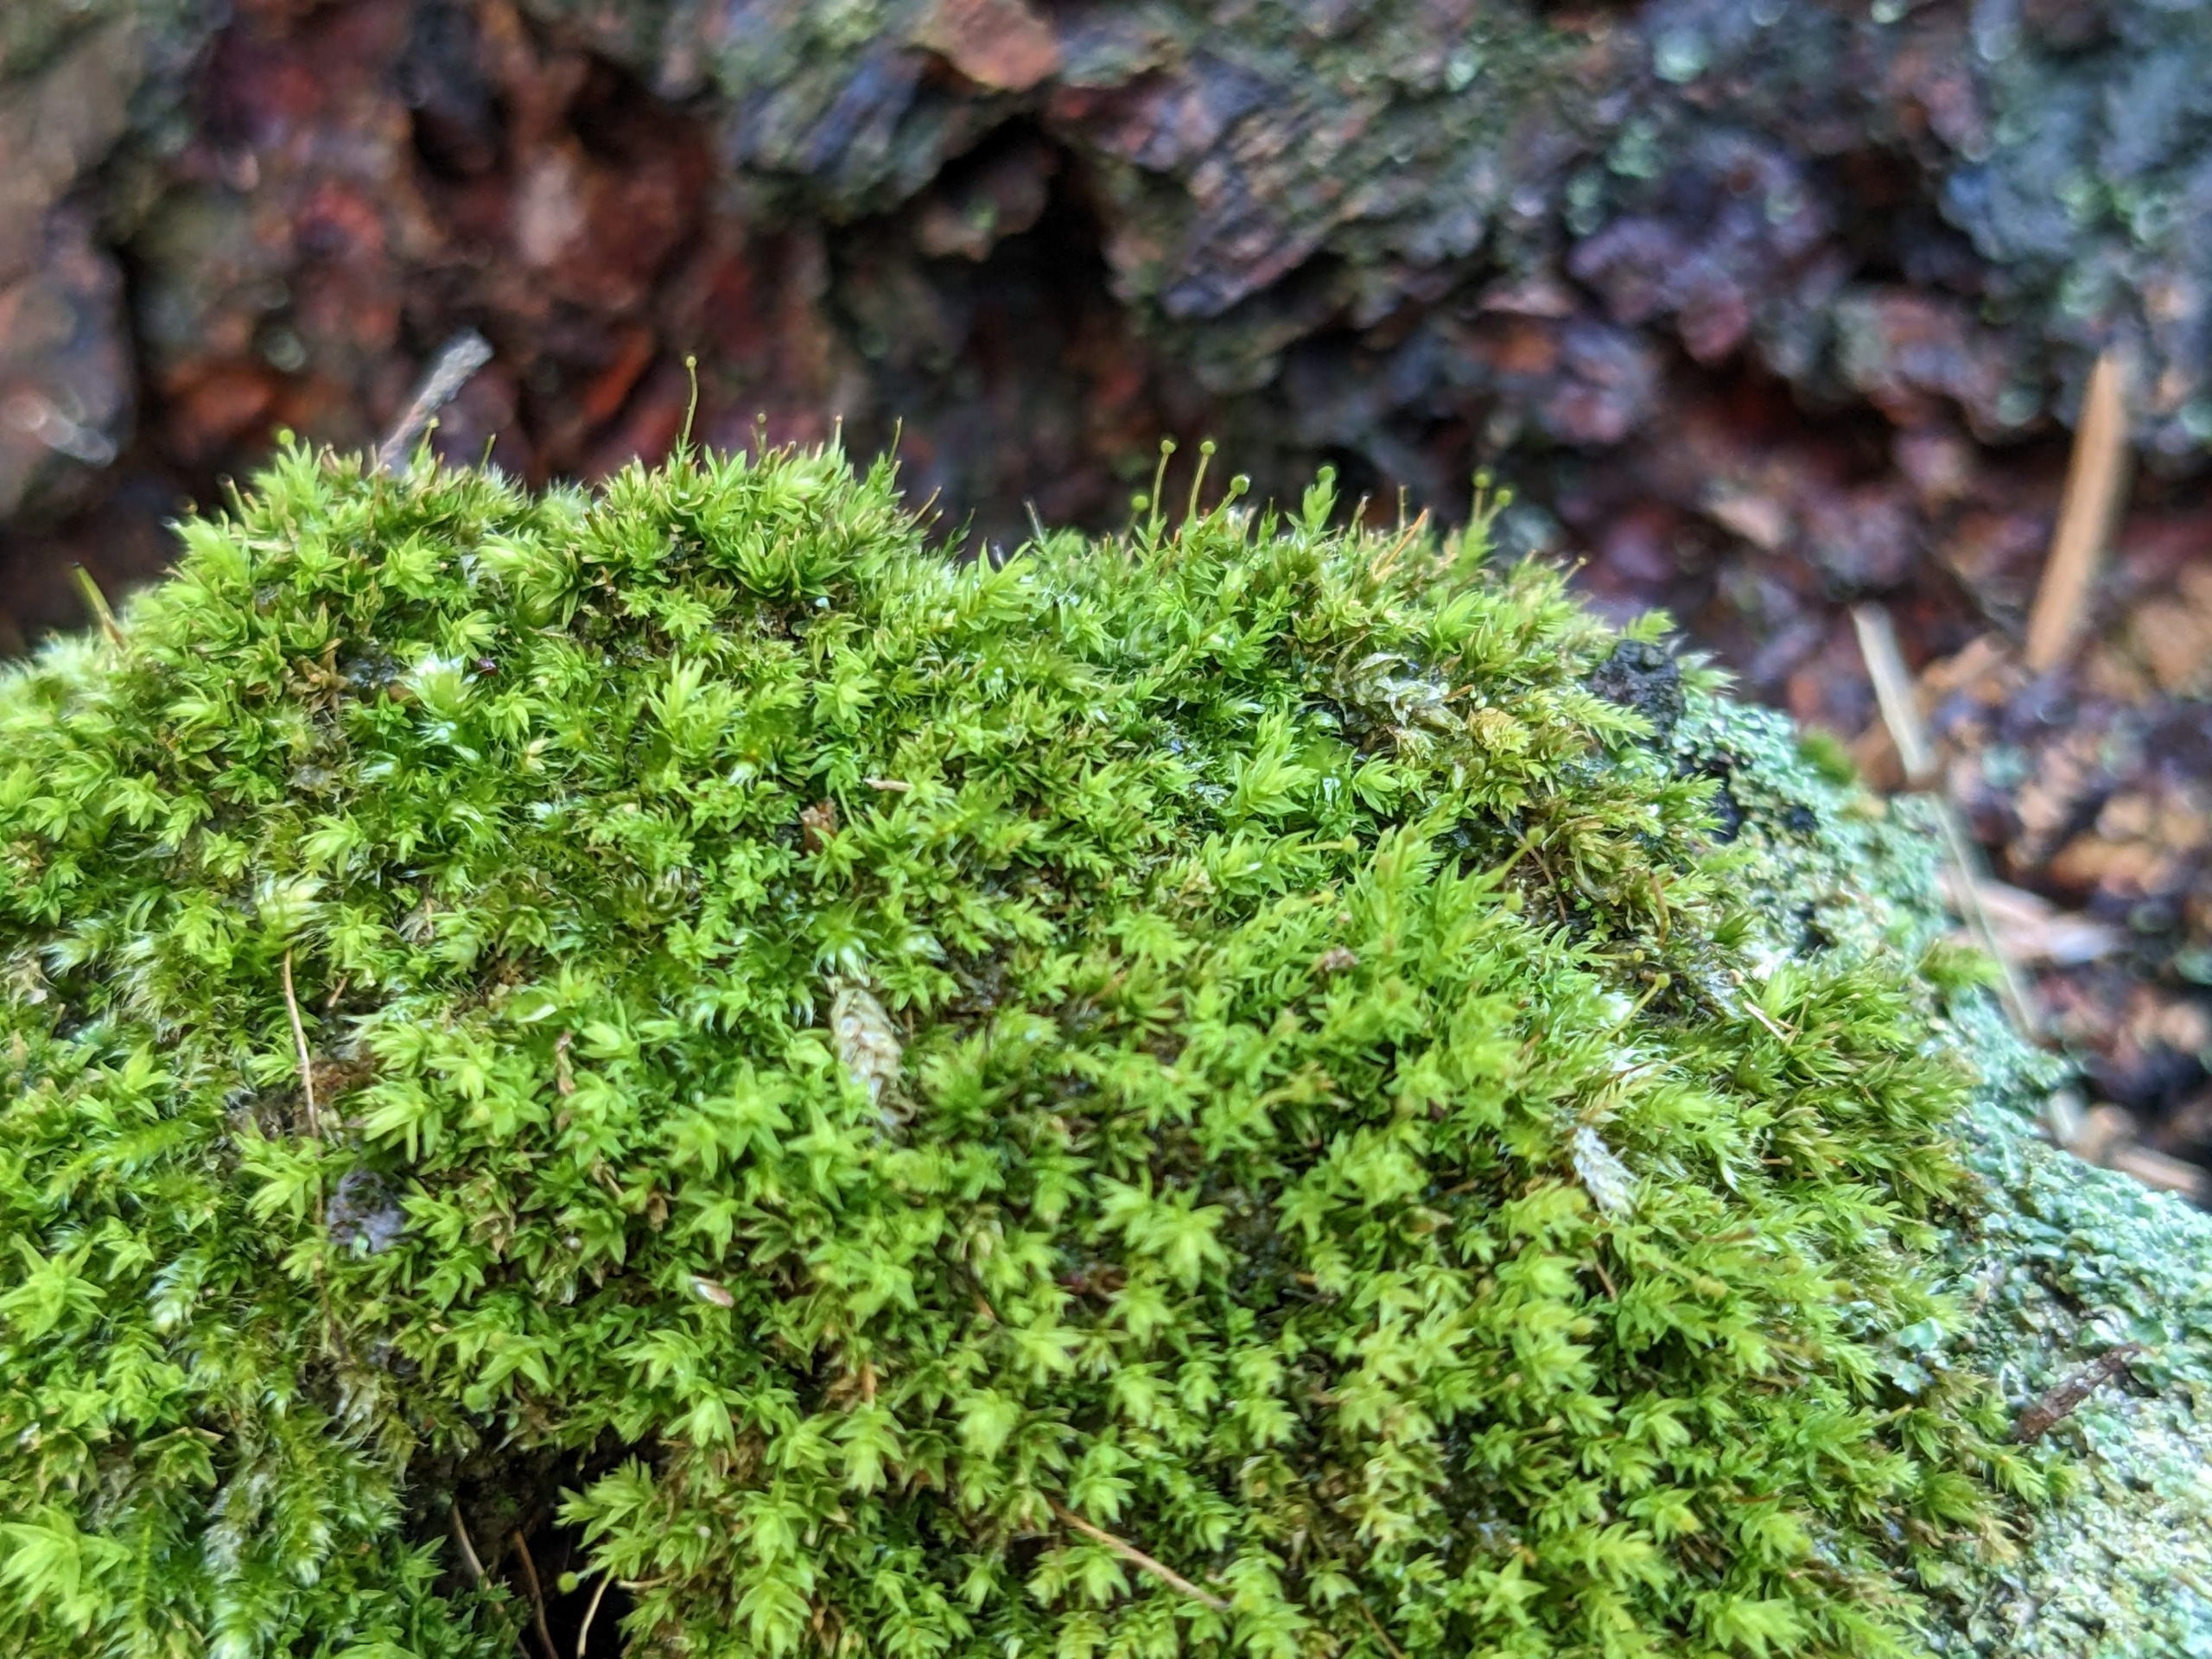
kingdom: Plantae
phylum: Bryophyta
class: Bryopsida
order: Aulacomniales
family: Aulacomniaceae
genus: Aulacomnium
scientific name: Aulacomnium androgynum
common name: Kugle-filtmos
